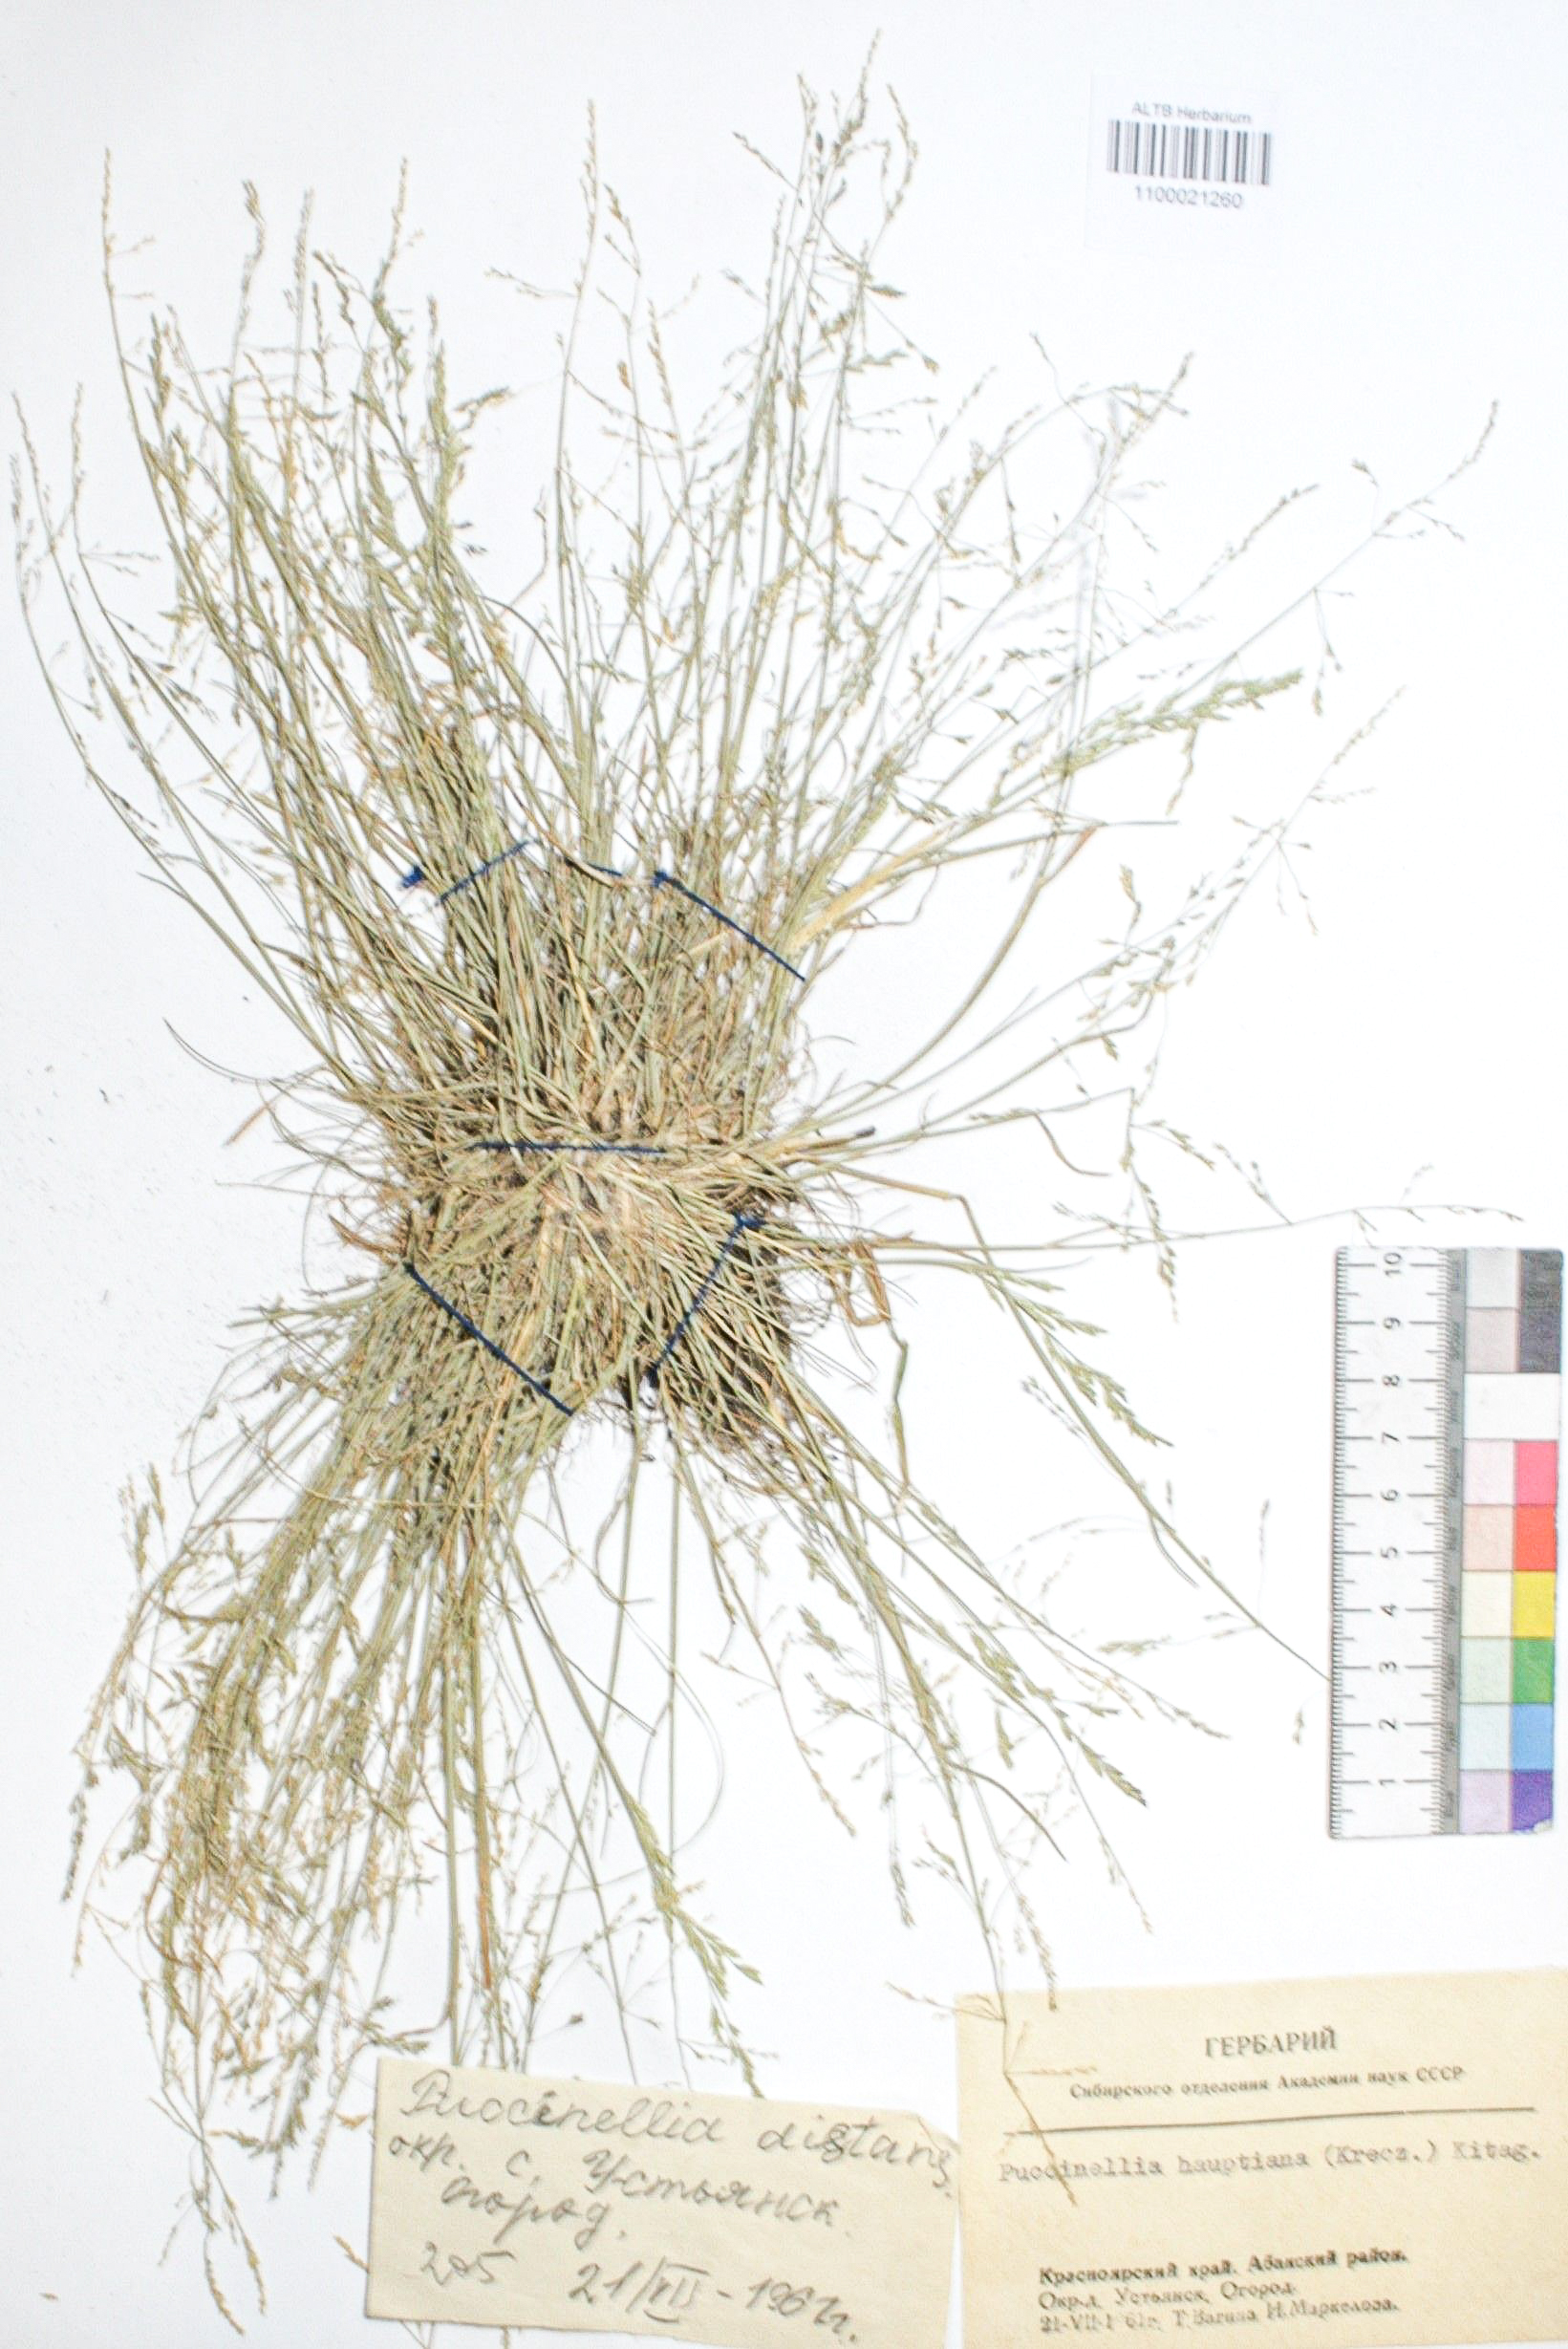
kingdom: Plantae
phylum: Tracheophyta
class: Liliopsida
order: Poales
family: Poaceae
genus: Puccinellia
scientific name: Puccinellia distans
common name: Weeping alkaligrass
